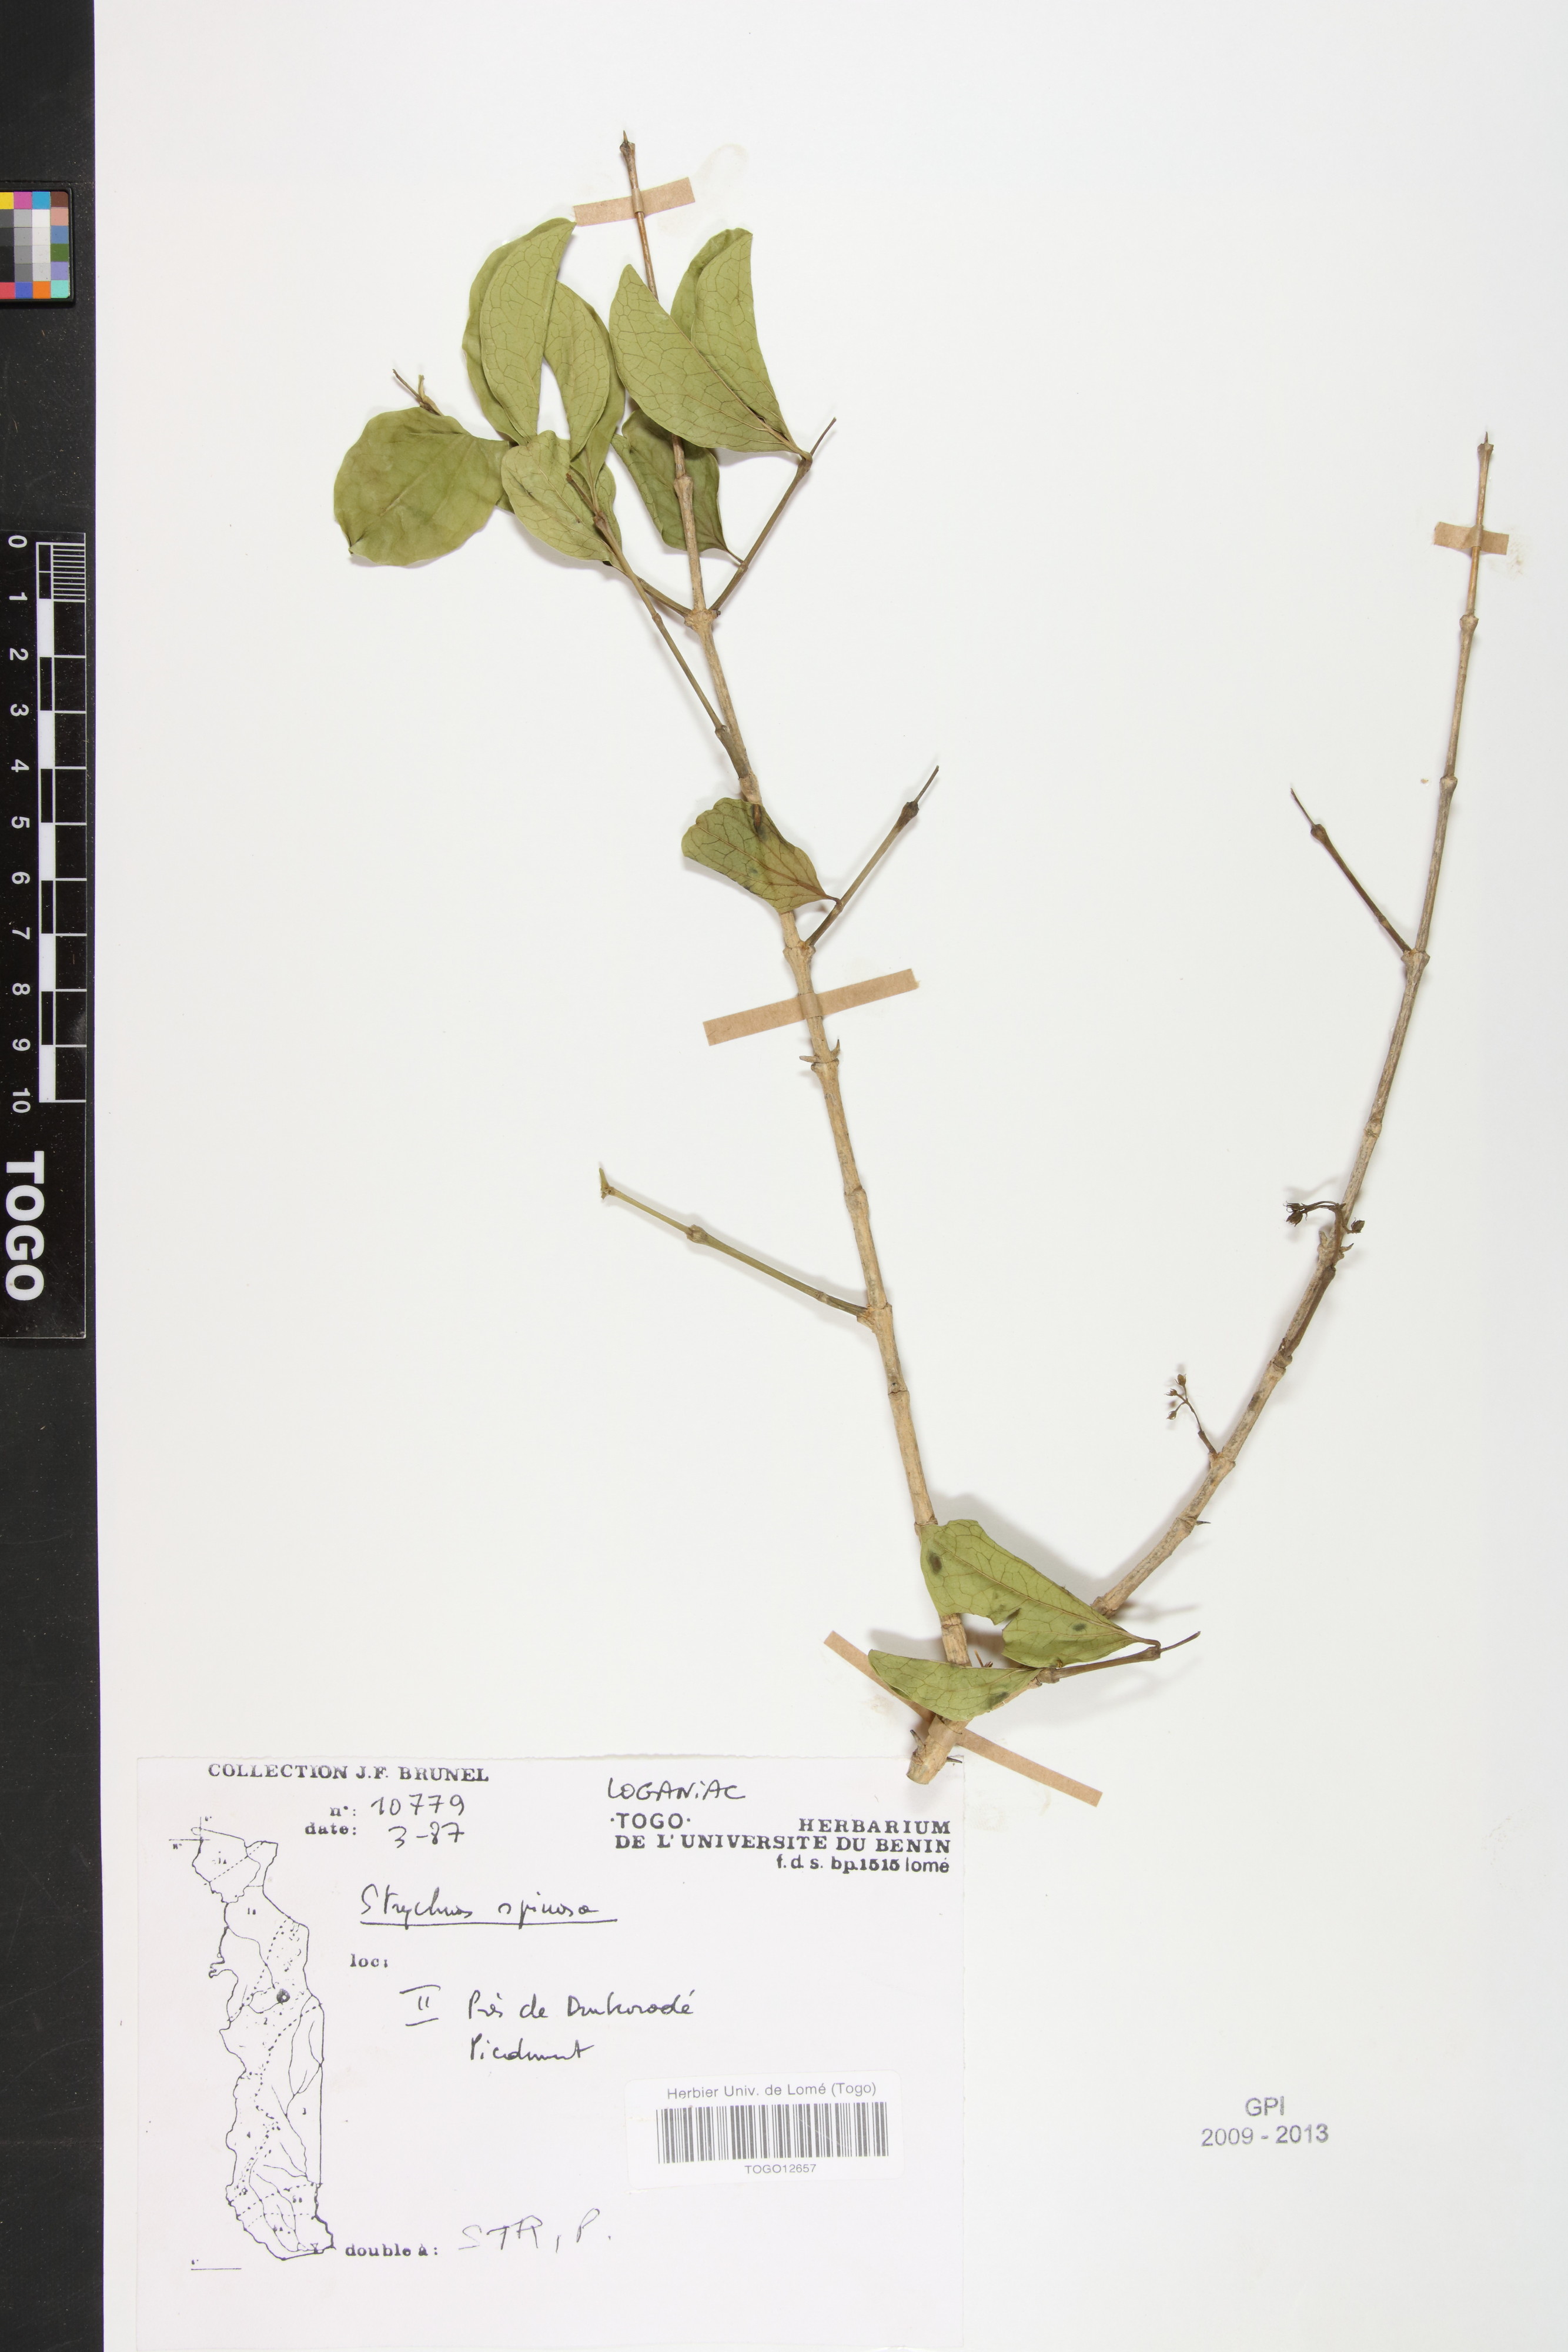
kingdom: Plantae
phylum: Tracheophyta
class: Magnoliopsida
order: Gentianales
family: Loganiaceae
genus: Strychnos
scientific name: Strychnos spinosa
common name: Natal orange
